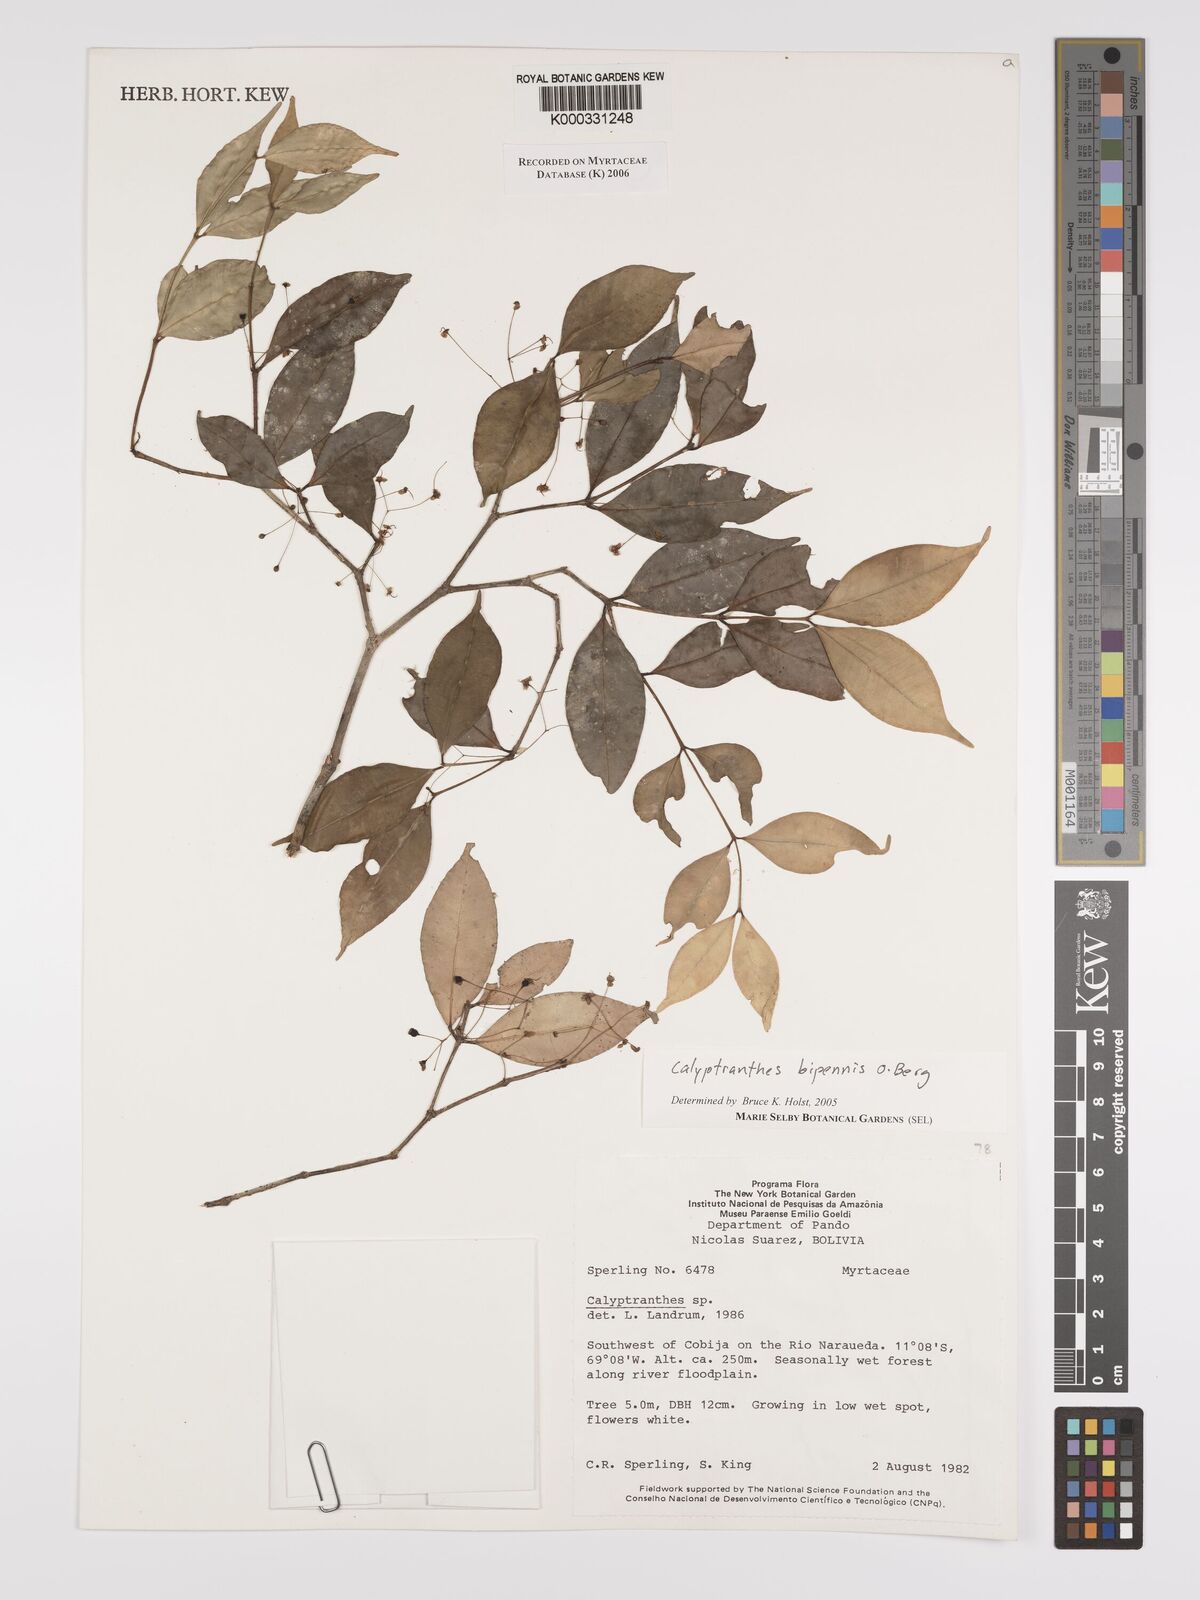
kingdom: Plantae
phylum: Tracheophyta
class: Magnoliopsida
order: Myrtales
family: Myrtaceae
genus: Myrcia
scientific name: Myrcia tenuiflora
